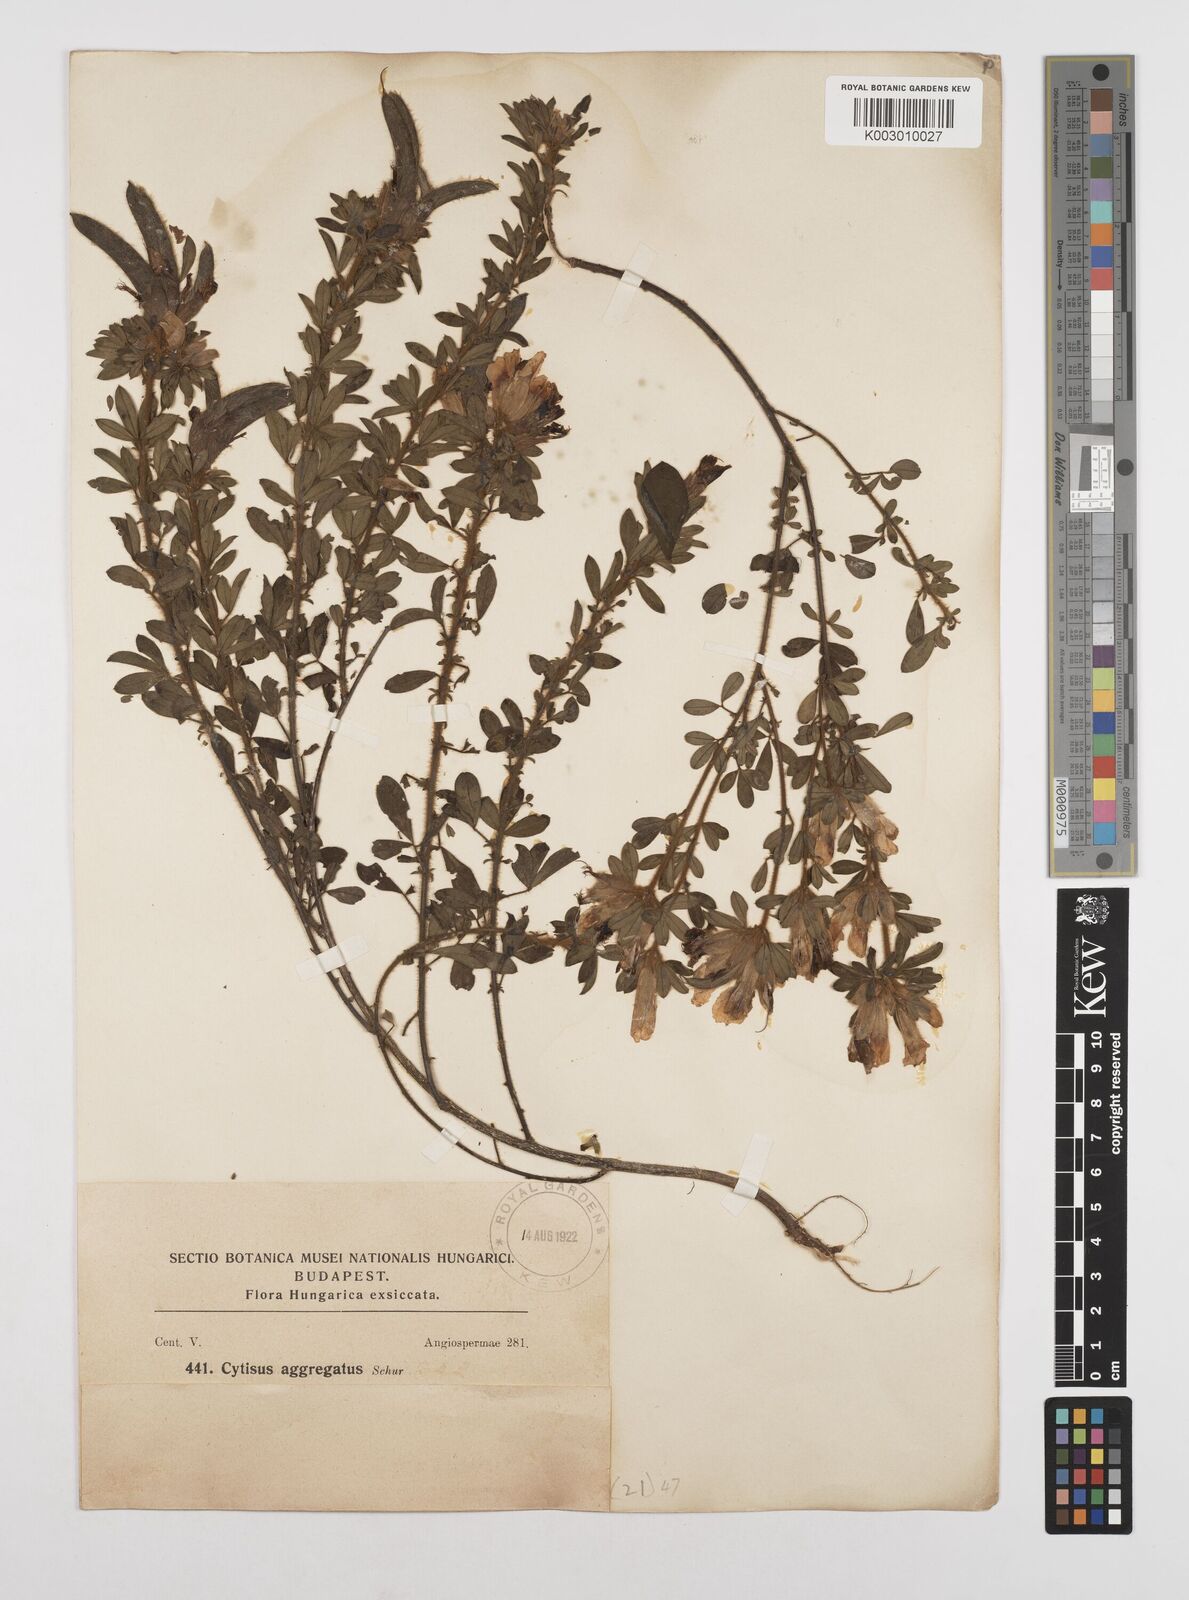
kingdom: Plantae
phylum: Tracheophyta
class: Magnoliopsida
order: Fabales
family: Fabaceae
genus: Chamaecytisus
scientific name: Chamaecytisus hirsutus
